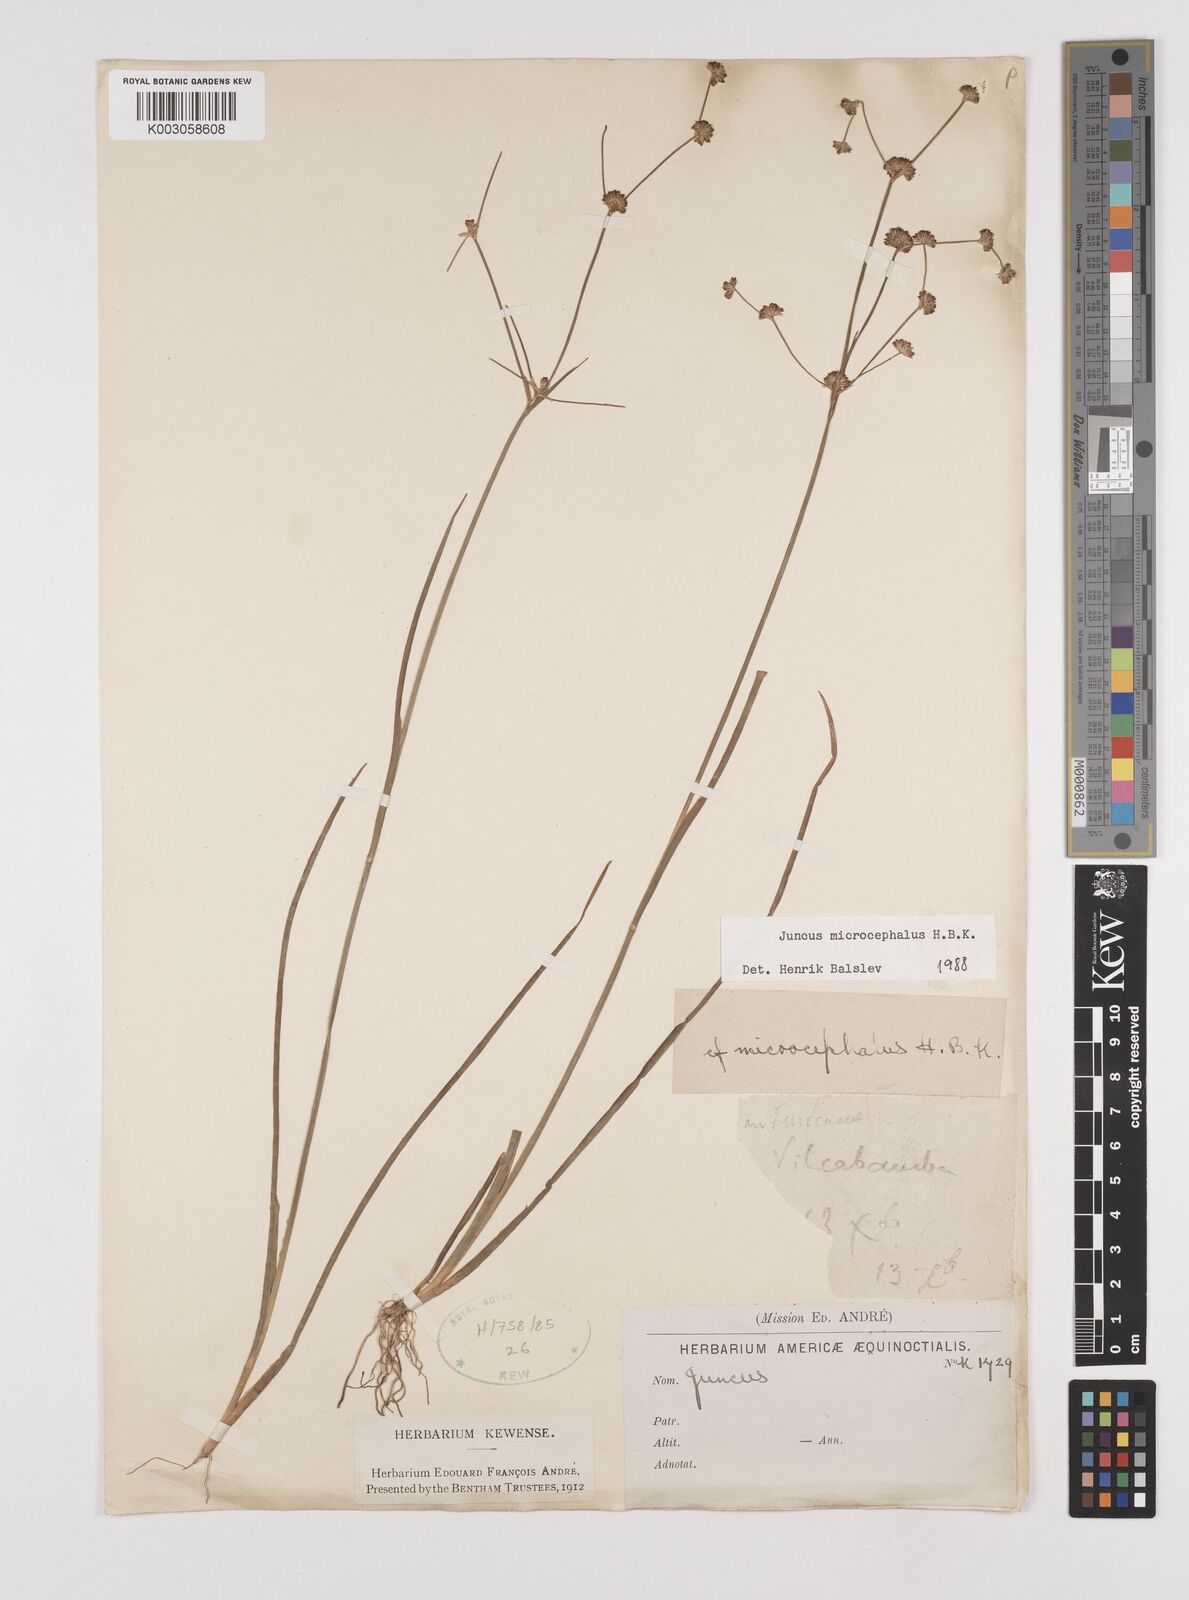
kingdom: Plantae
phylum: Tracheophyta
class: Liliopsida
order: Poales
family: Juncaceae
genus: Juncus
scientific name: Juncus
